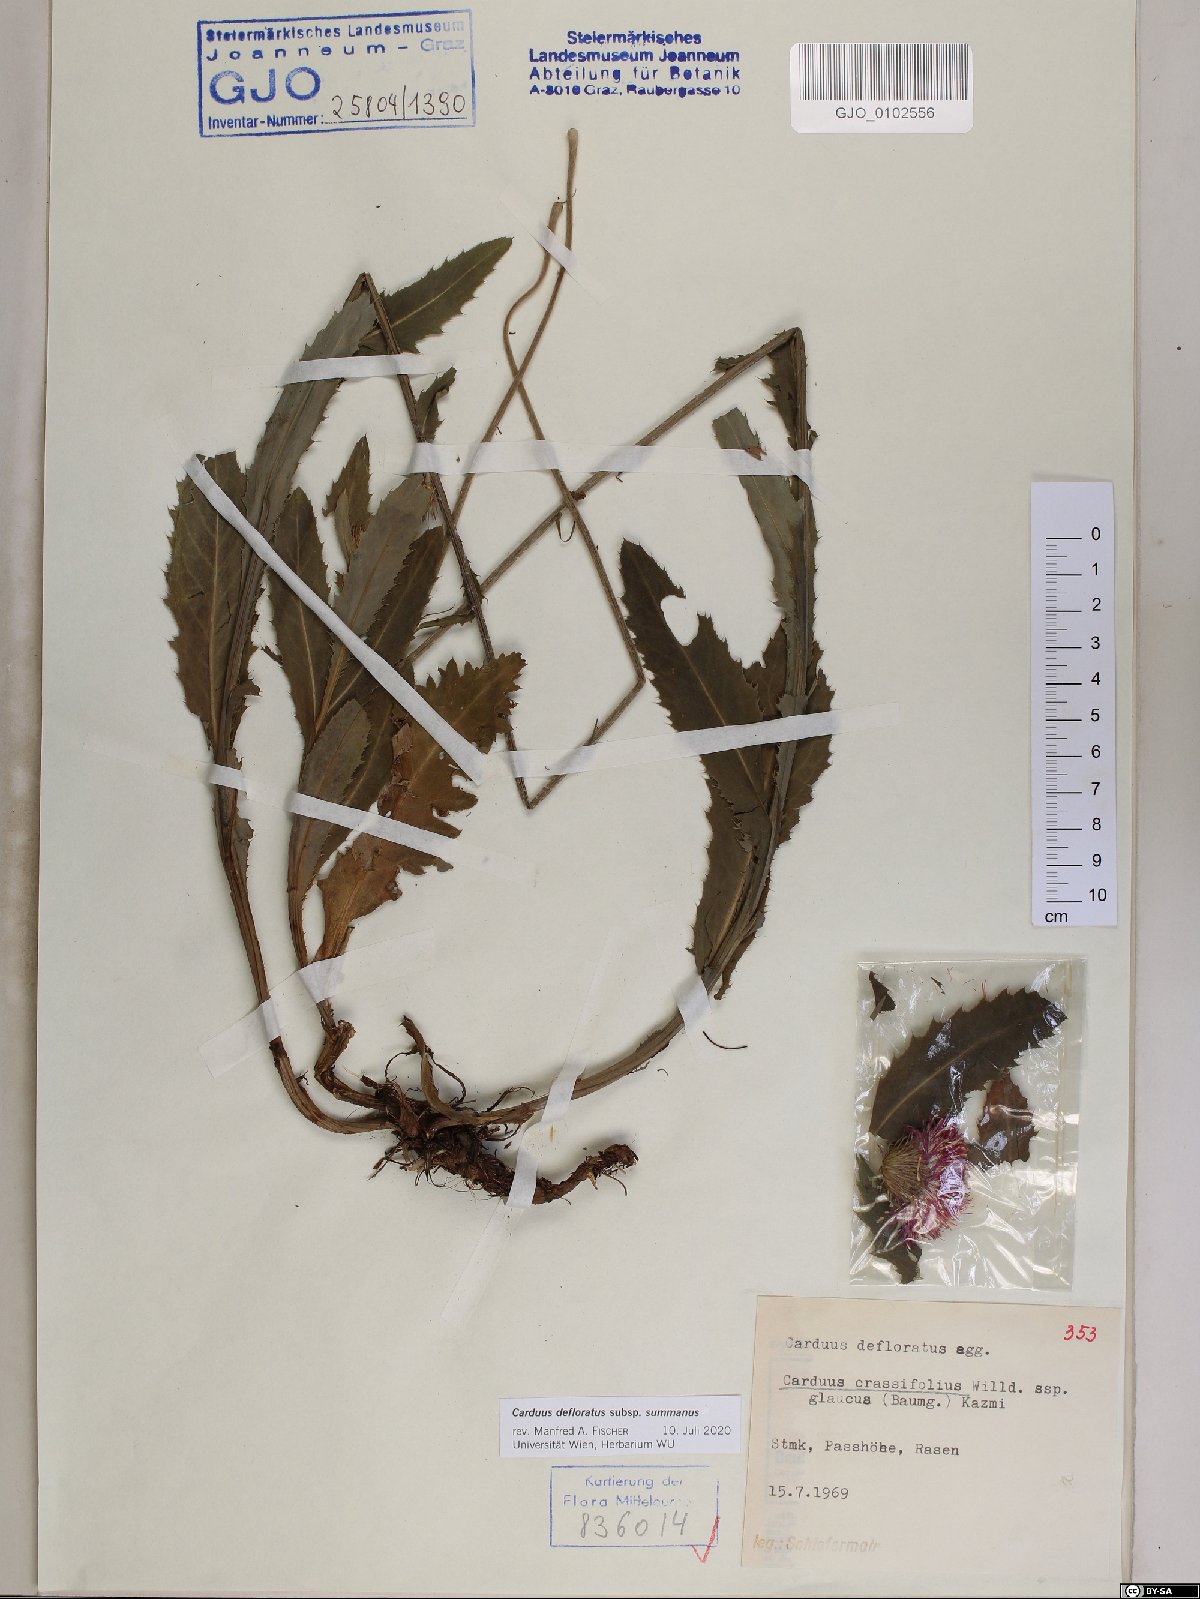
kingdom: Plantae
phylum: Tracheophyta
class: Magnoliopsida
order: Asterales
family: Asteraceae
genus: Carduus
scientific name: Carduus defloratus
